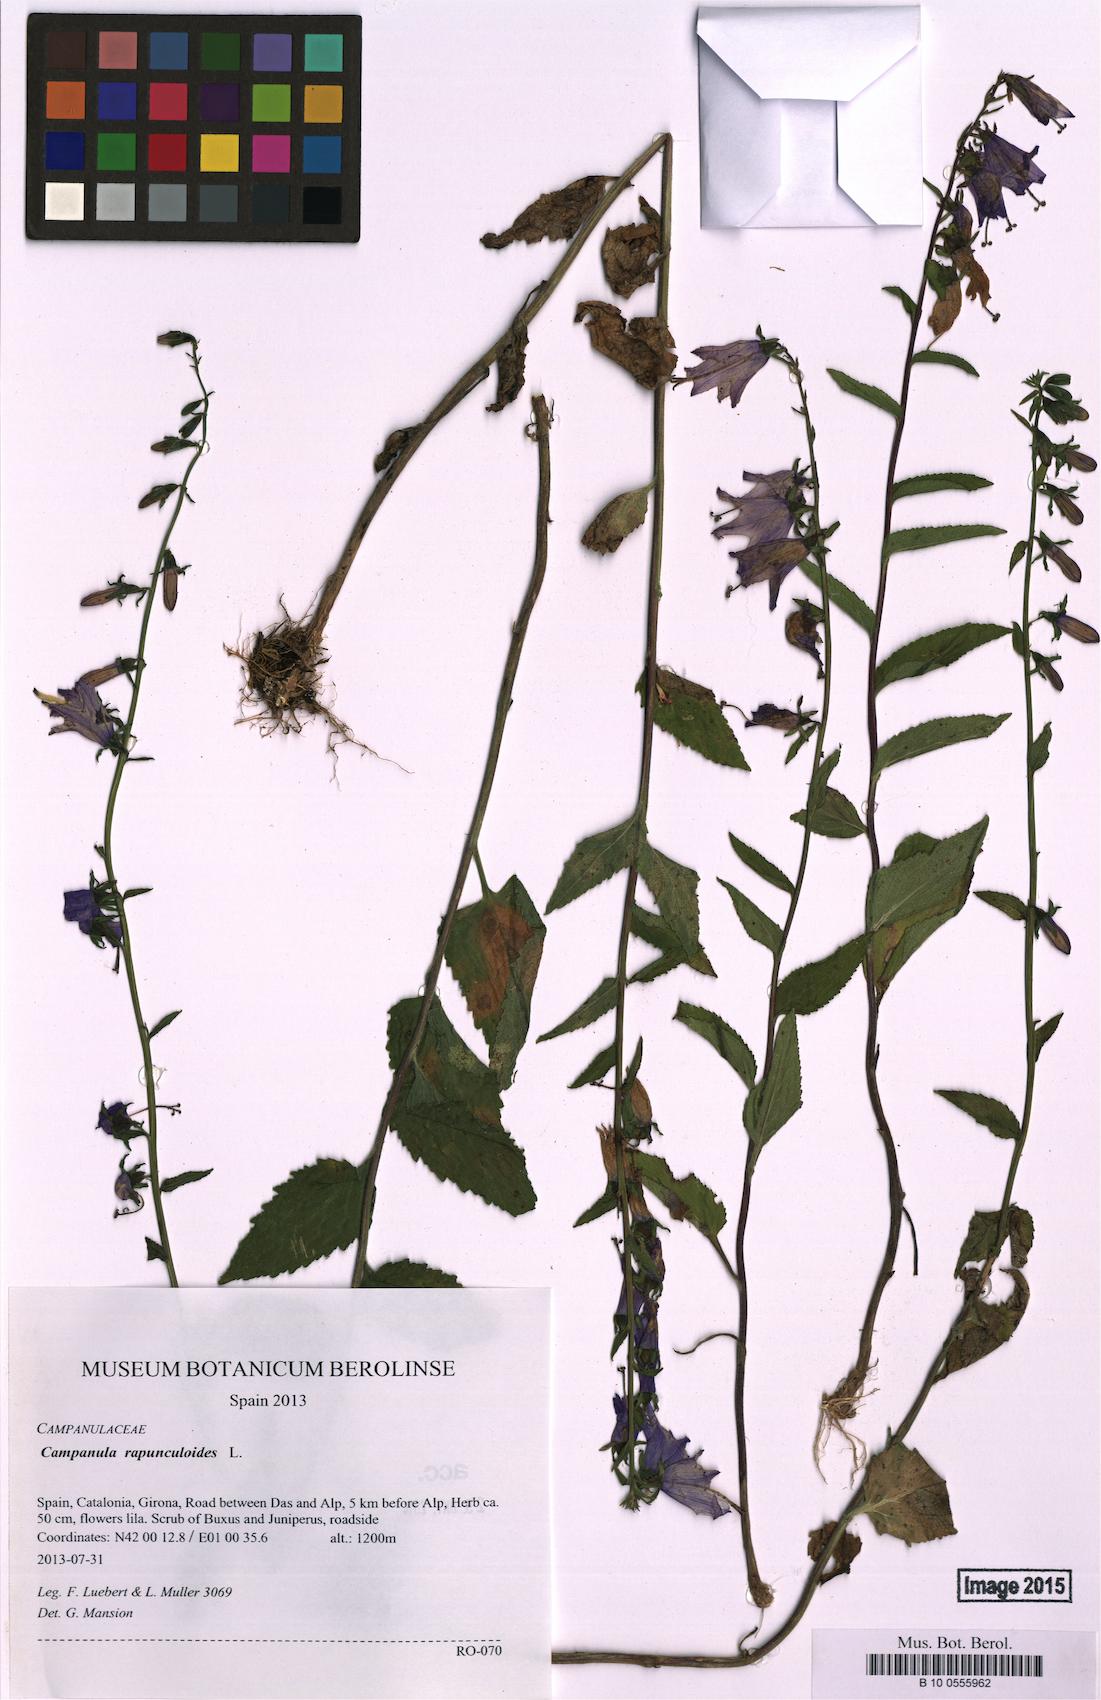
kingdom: Plantae
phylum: Tracheophyta
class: Magnoliopsida
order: Asterales
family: Campanulaceae
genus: Campanula
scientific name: Campanula rapunculoides
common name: Creeping bellflower
